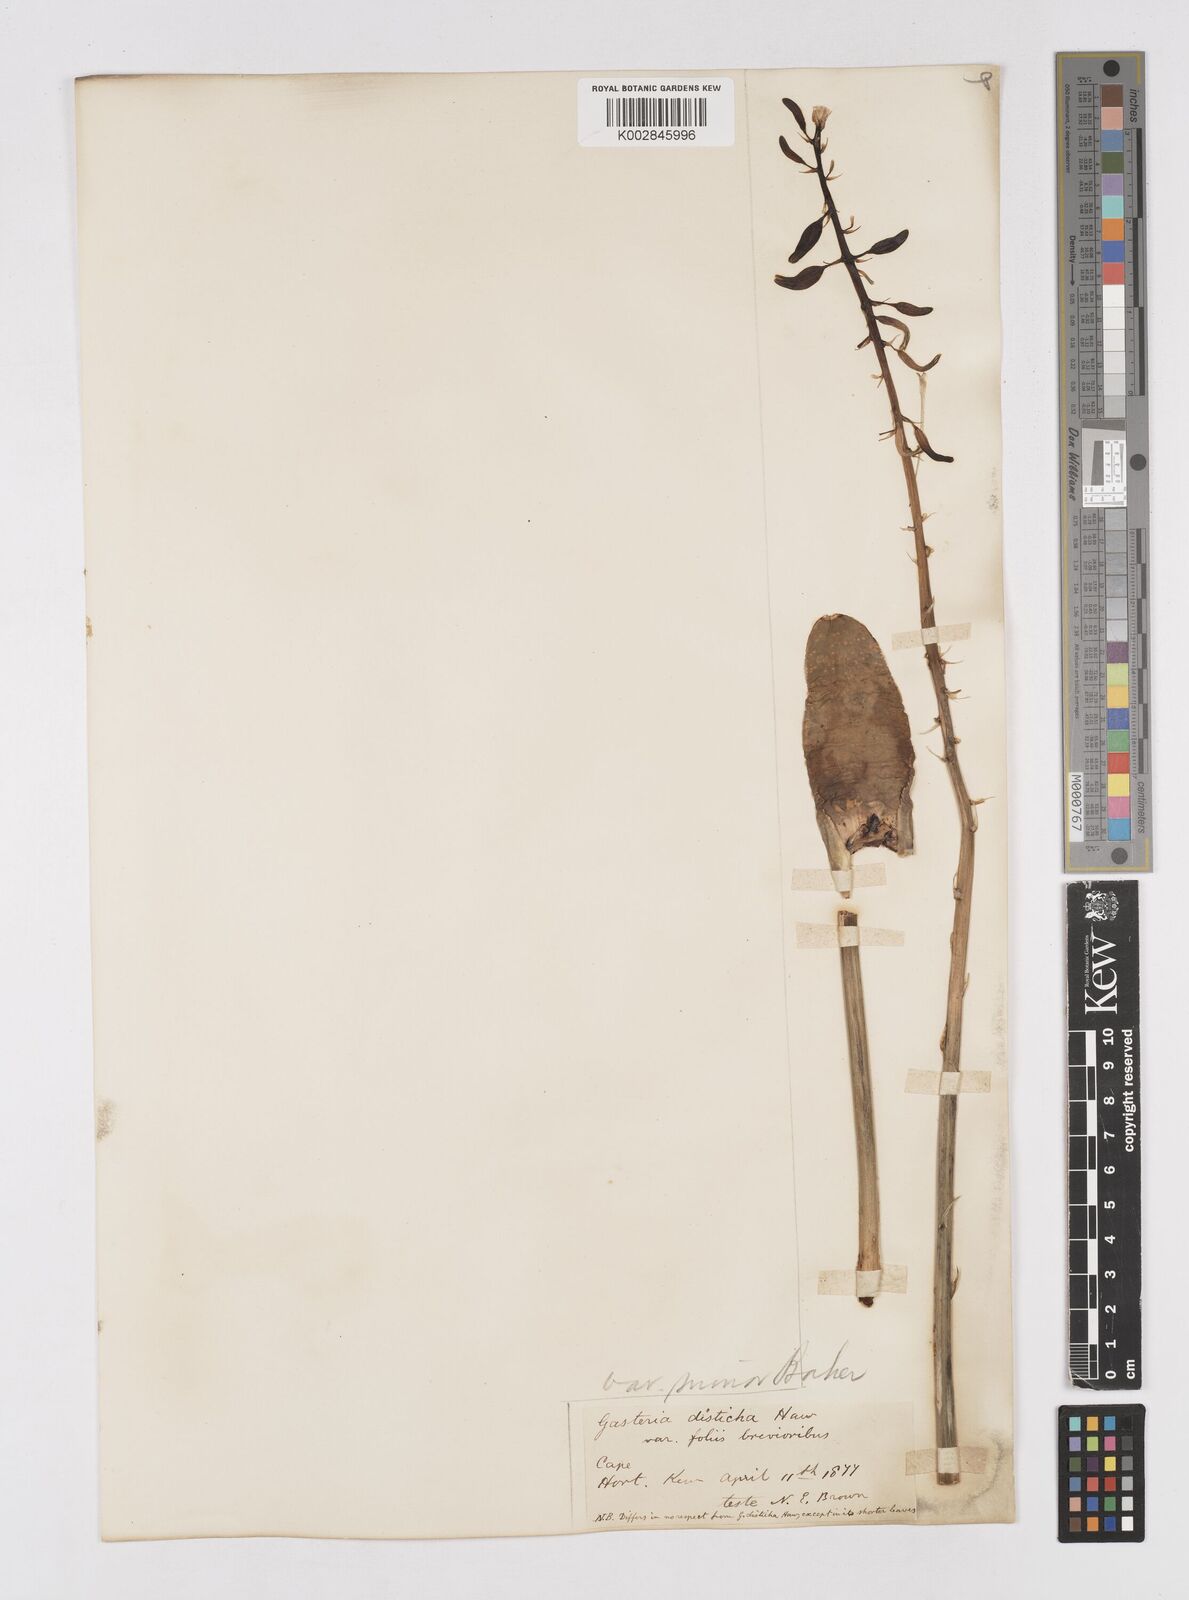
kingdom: Plantae
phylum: Tracheophyta
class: Liliopsida
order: Asparagales
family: Asphodelaceae
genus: Gasteria
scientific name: Gasteria lingua
